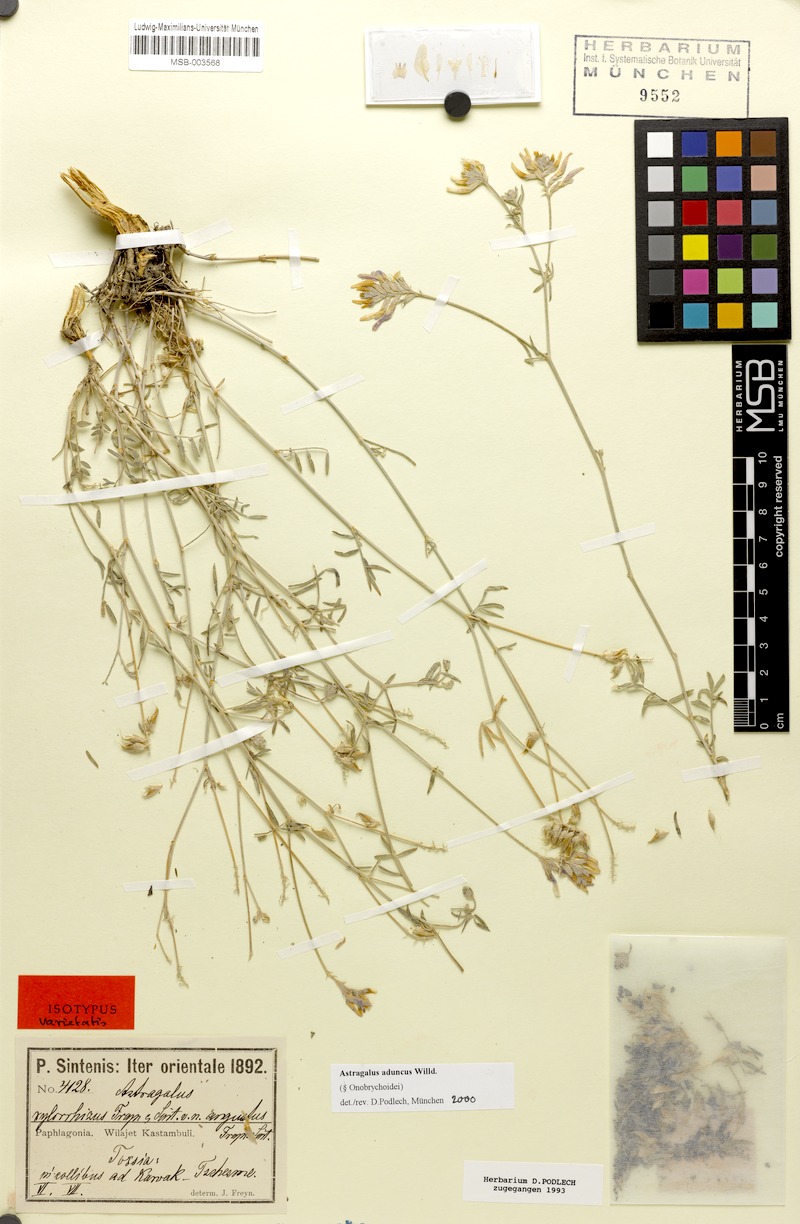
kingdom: Plantae
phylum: Tracheophyta
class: Magnoliopsida
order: Fabales
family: Fabaceae
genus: Astragalus
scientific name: Astragalus aduncus
